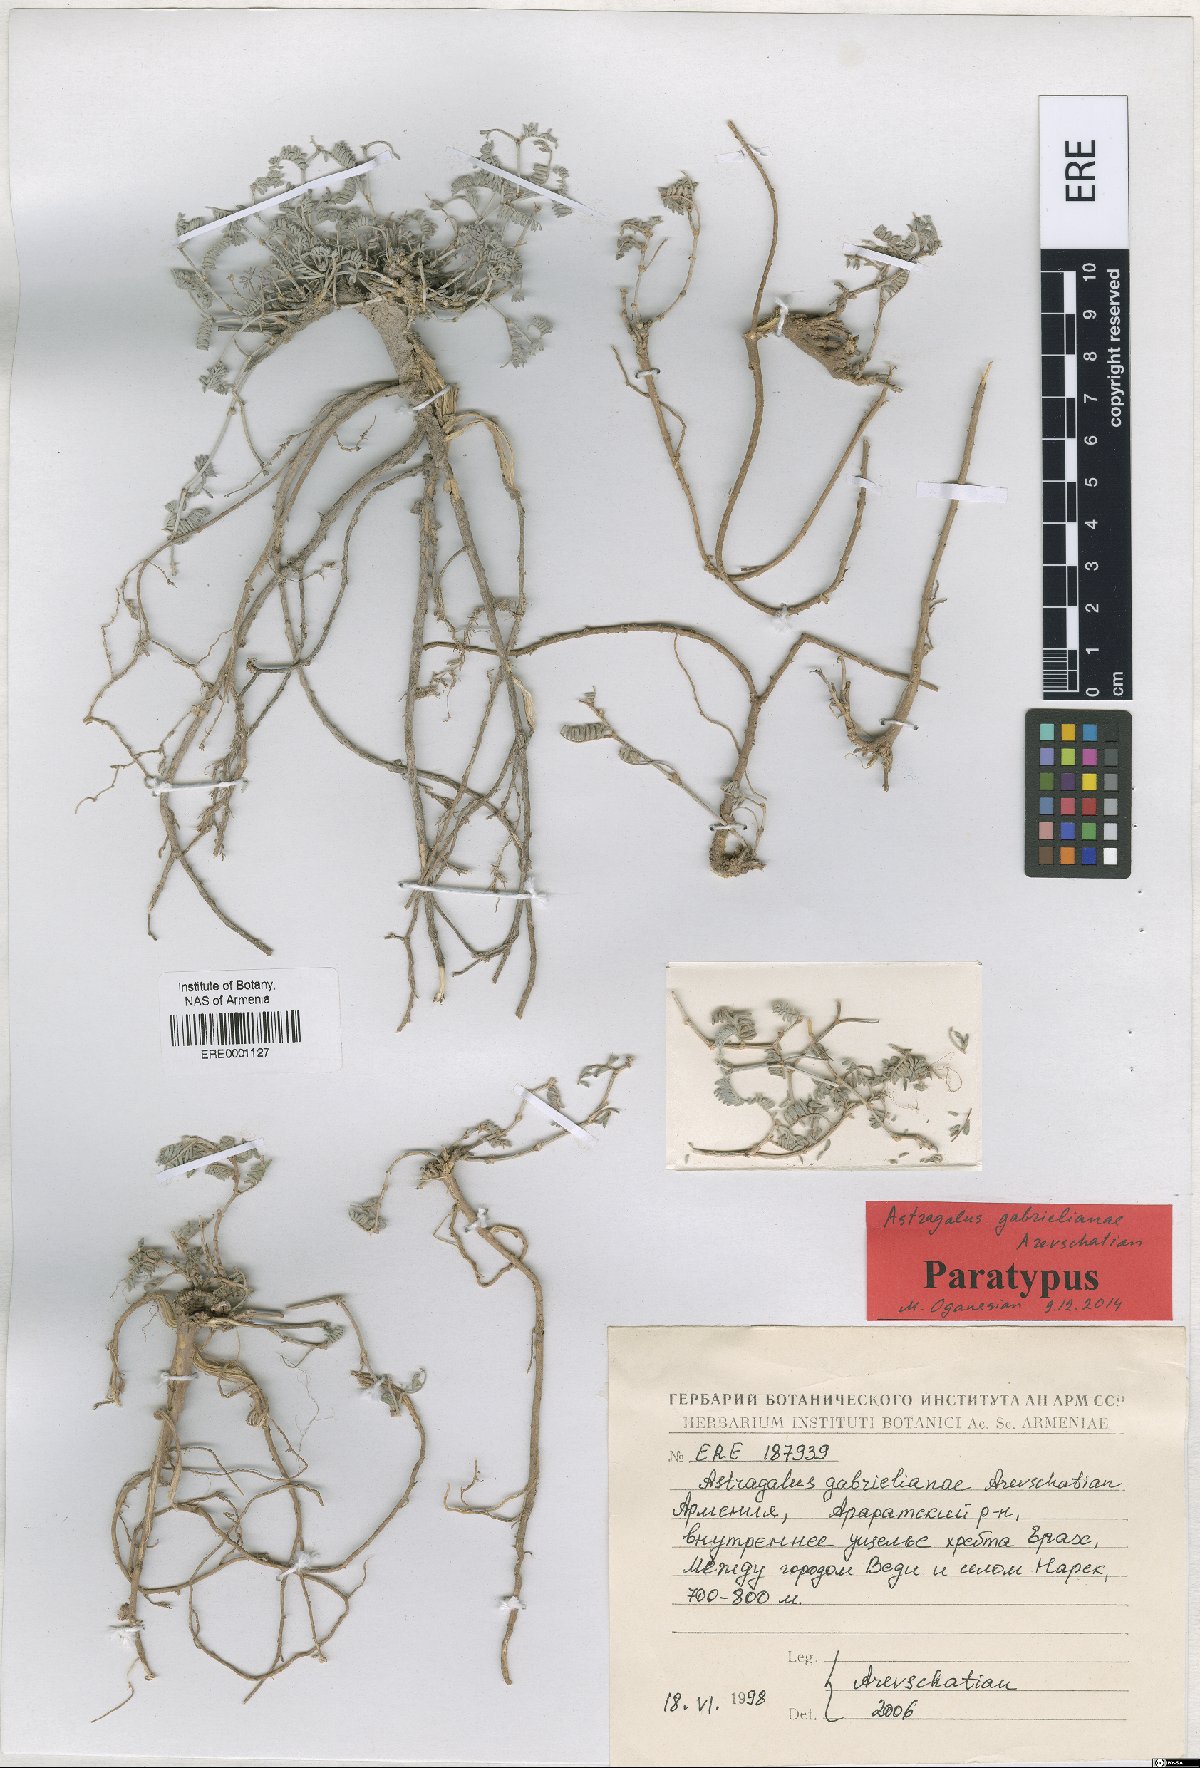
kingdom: Plantae
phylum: Tracheophyta
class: Magnoliopsida
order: Fabales
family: Fabaceae
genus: Astragalus
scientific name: Astragalus gabrelianae
